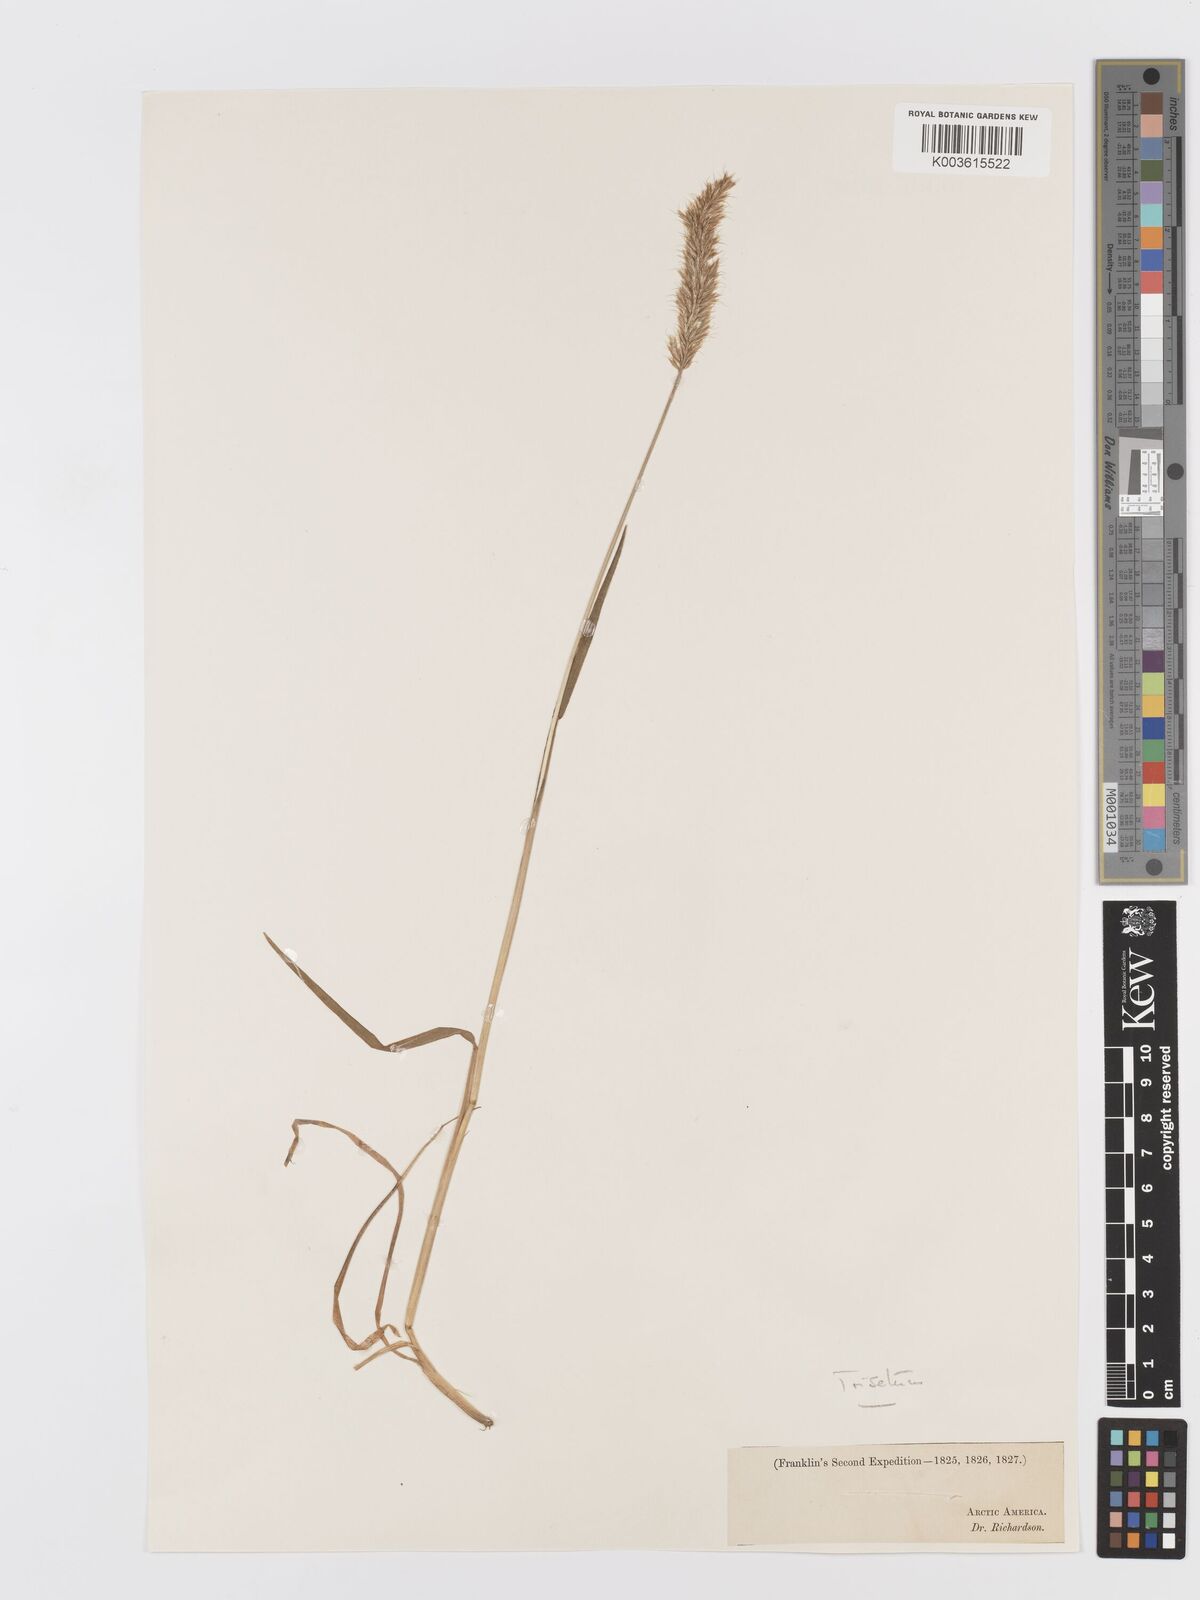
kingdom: Plantae
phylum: Tracheophyta
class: Liliopsida
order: Poales
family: Poaceae
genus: Koeleria
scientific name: Koeleria spicata
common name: Mountain trisetum
